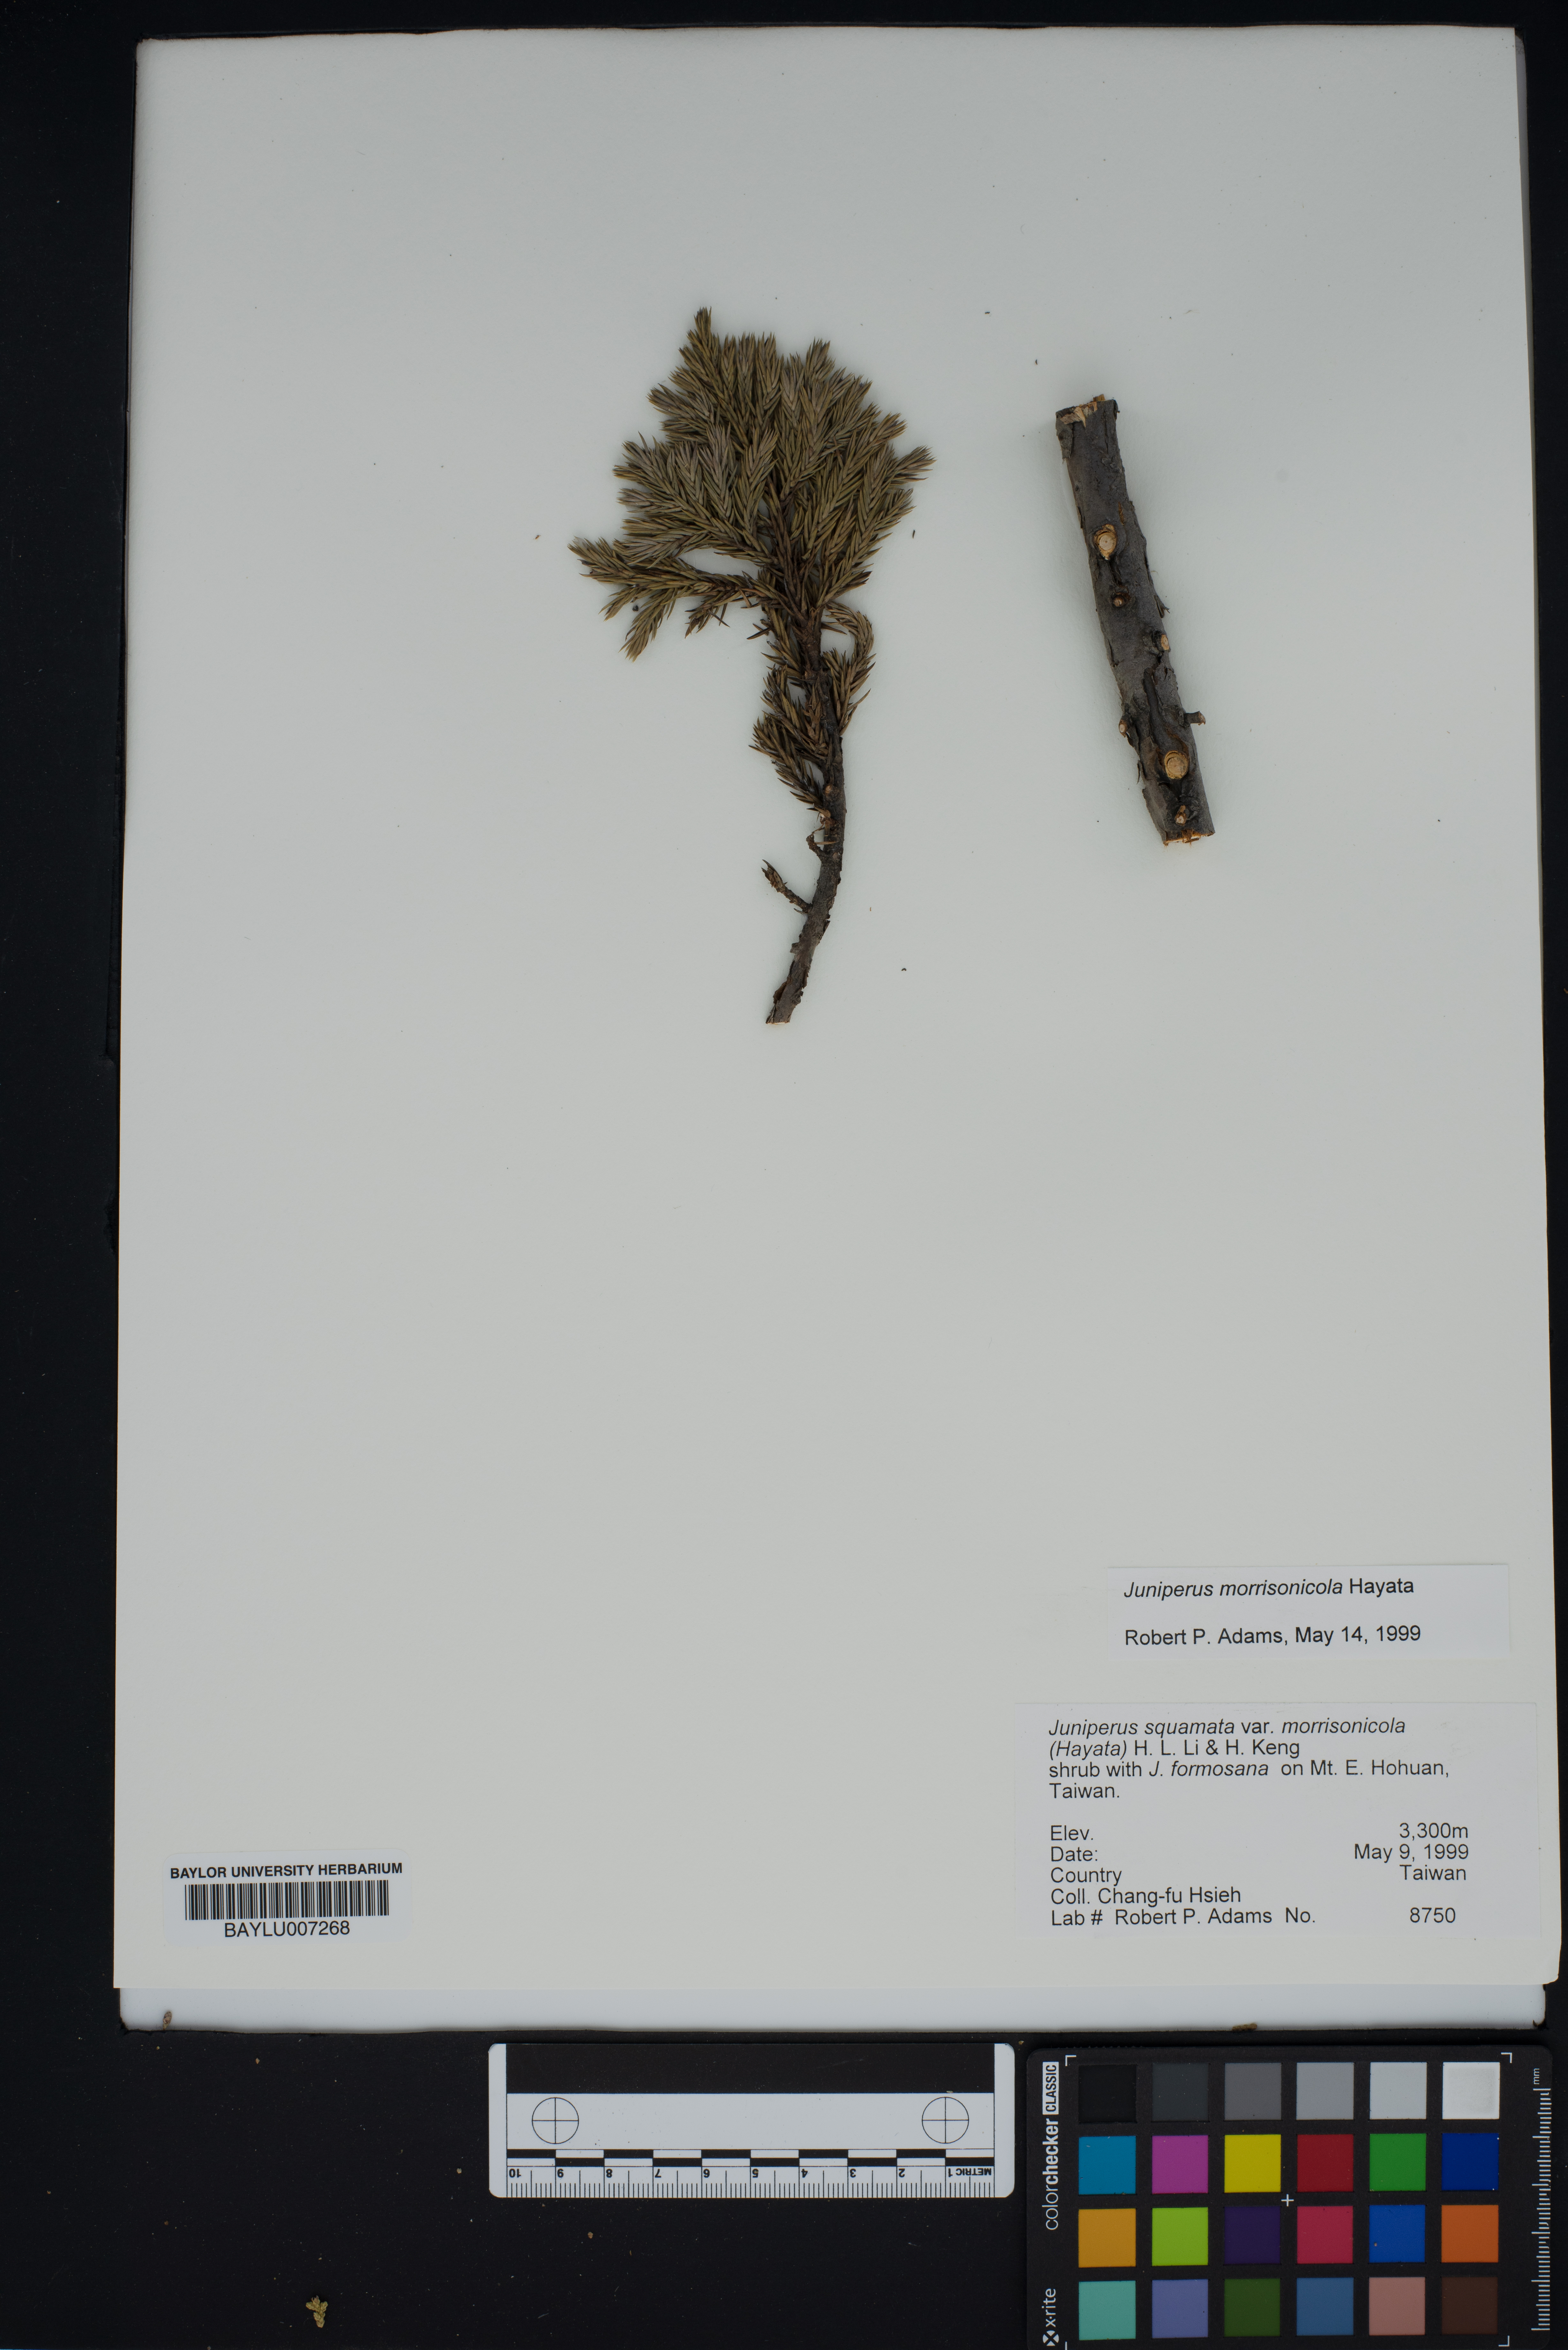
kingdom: Plantae
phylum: Tracheophyta
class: Pinopsida
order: Pinales
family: Cupressaceae
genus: Juniperus
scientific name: Juniperus squamata
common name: Flaky juniper
